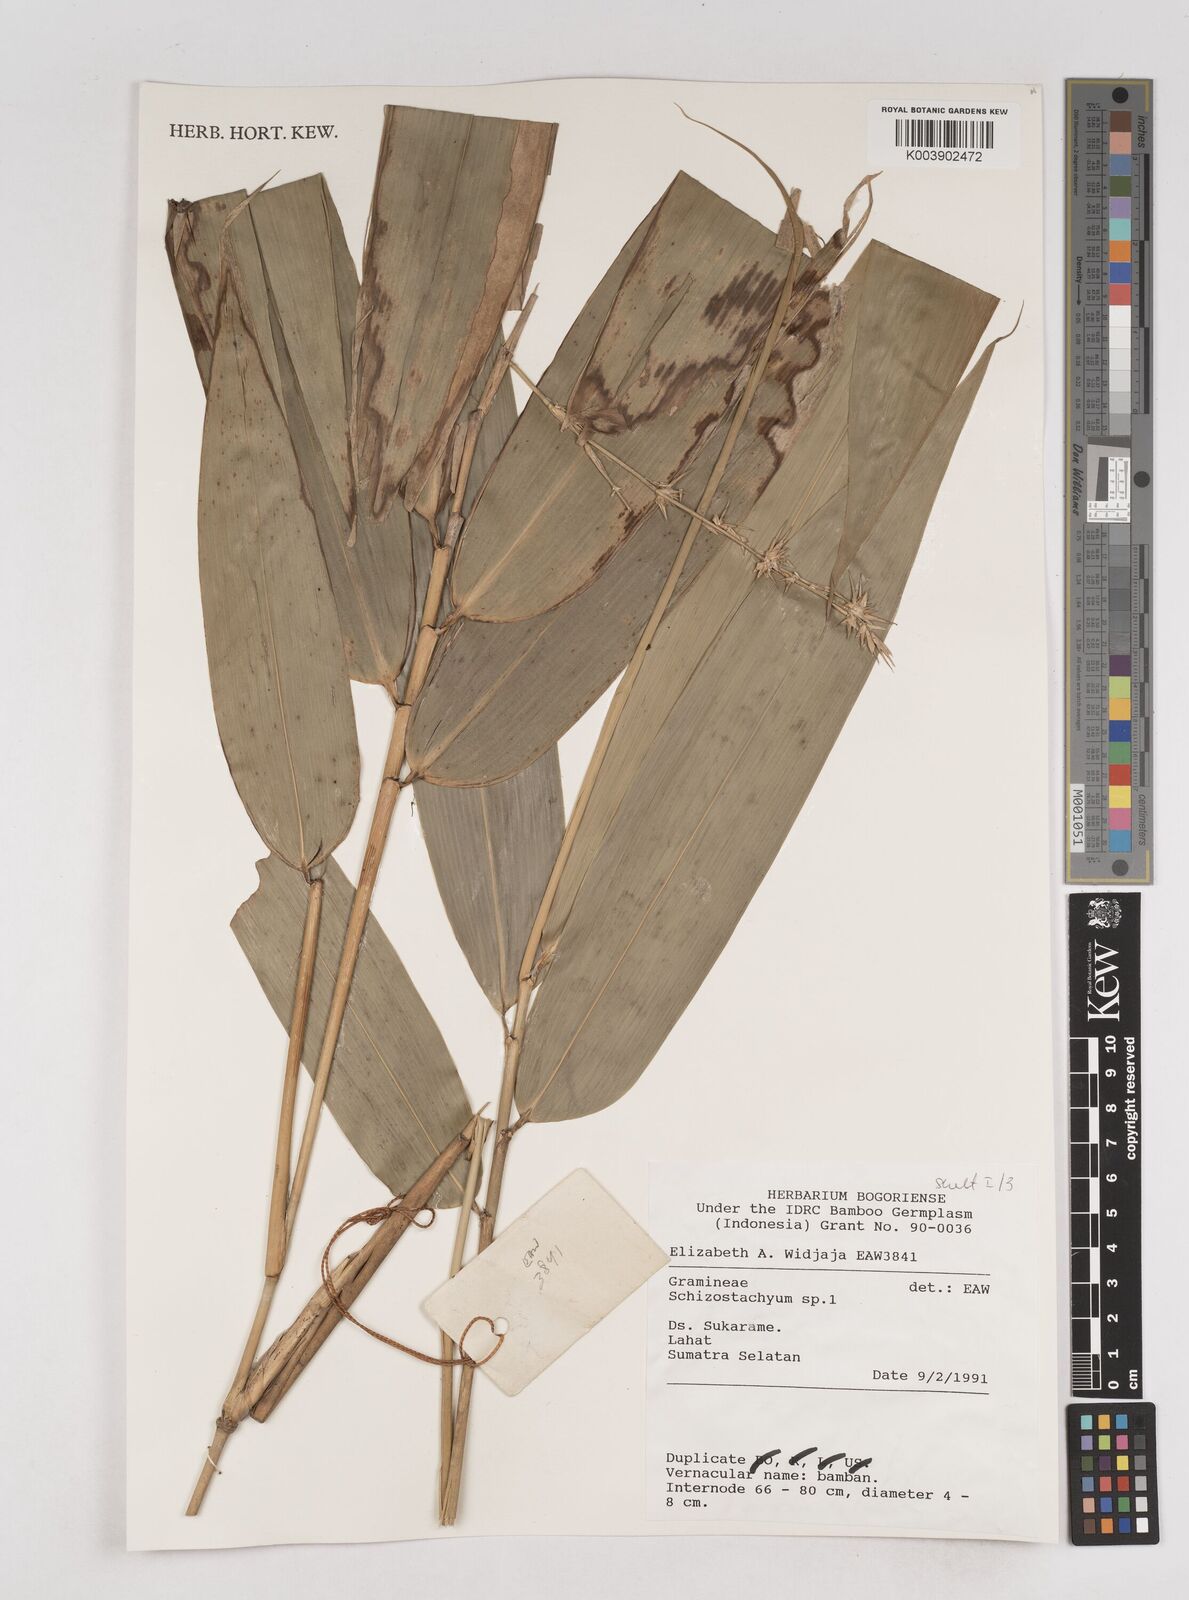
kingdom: Plantae
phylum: Tracheophyta
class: Liliopsida
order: Poales
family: Poaceae
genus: Schizostachyum
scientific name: Schizostachyum
